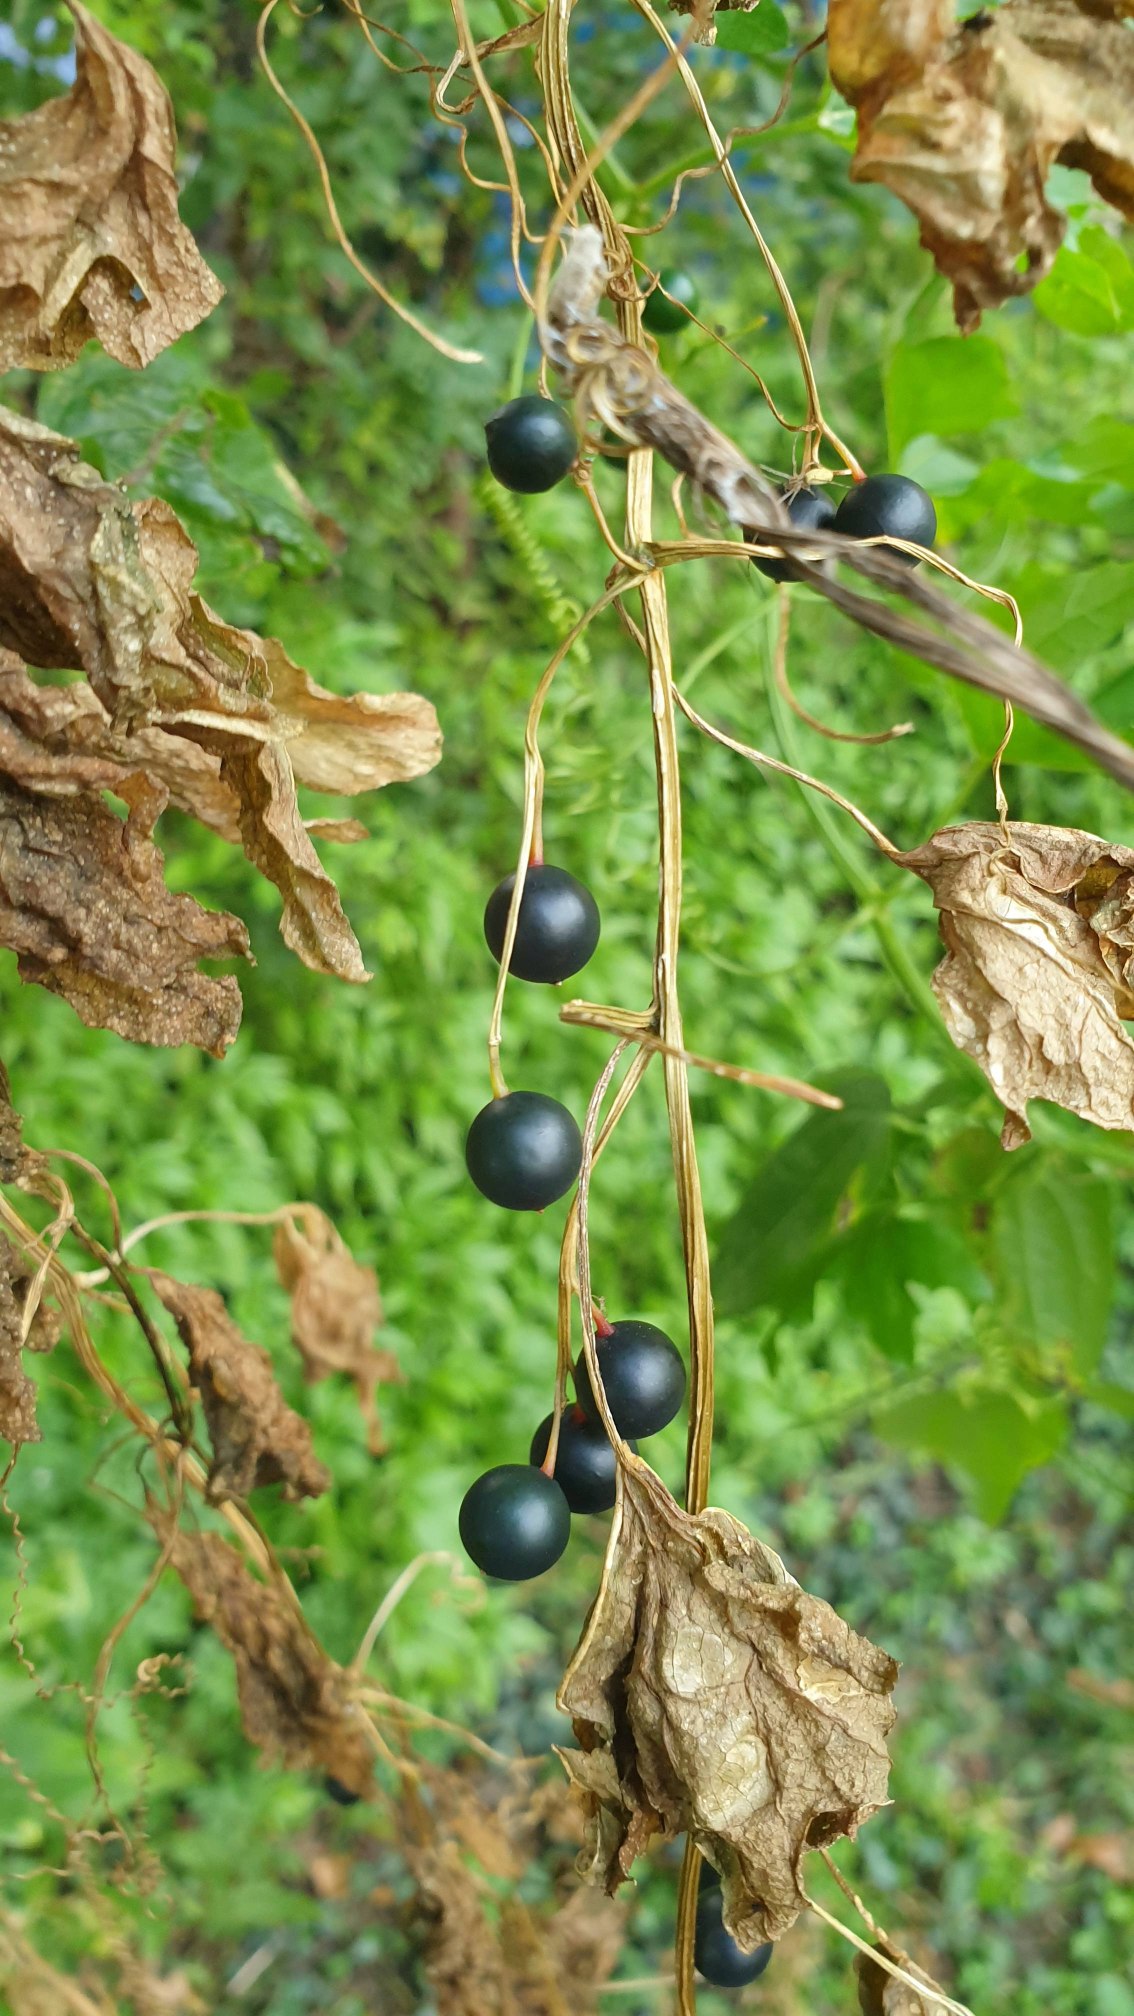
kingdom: Plantae
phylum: Tracheophyta
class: Magnoliopsida
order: Cucurbitales
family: Cucurbitaceae
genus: Bryonia
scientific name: Bryonia alba
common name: Enbo galdebær
